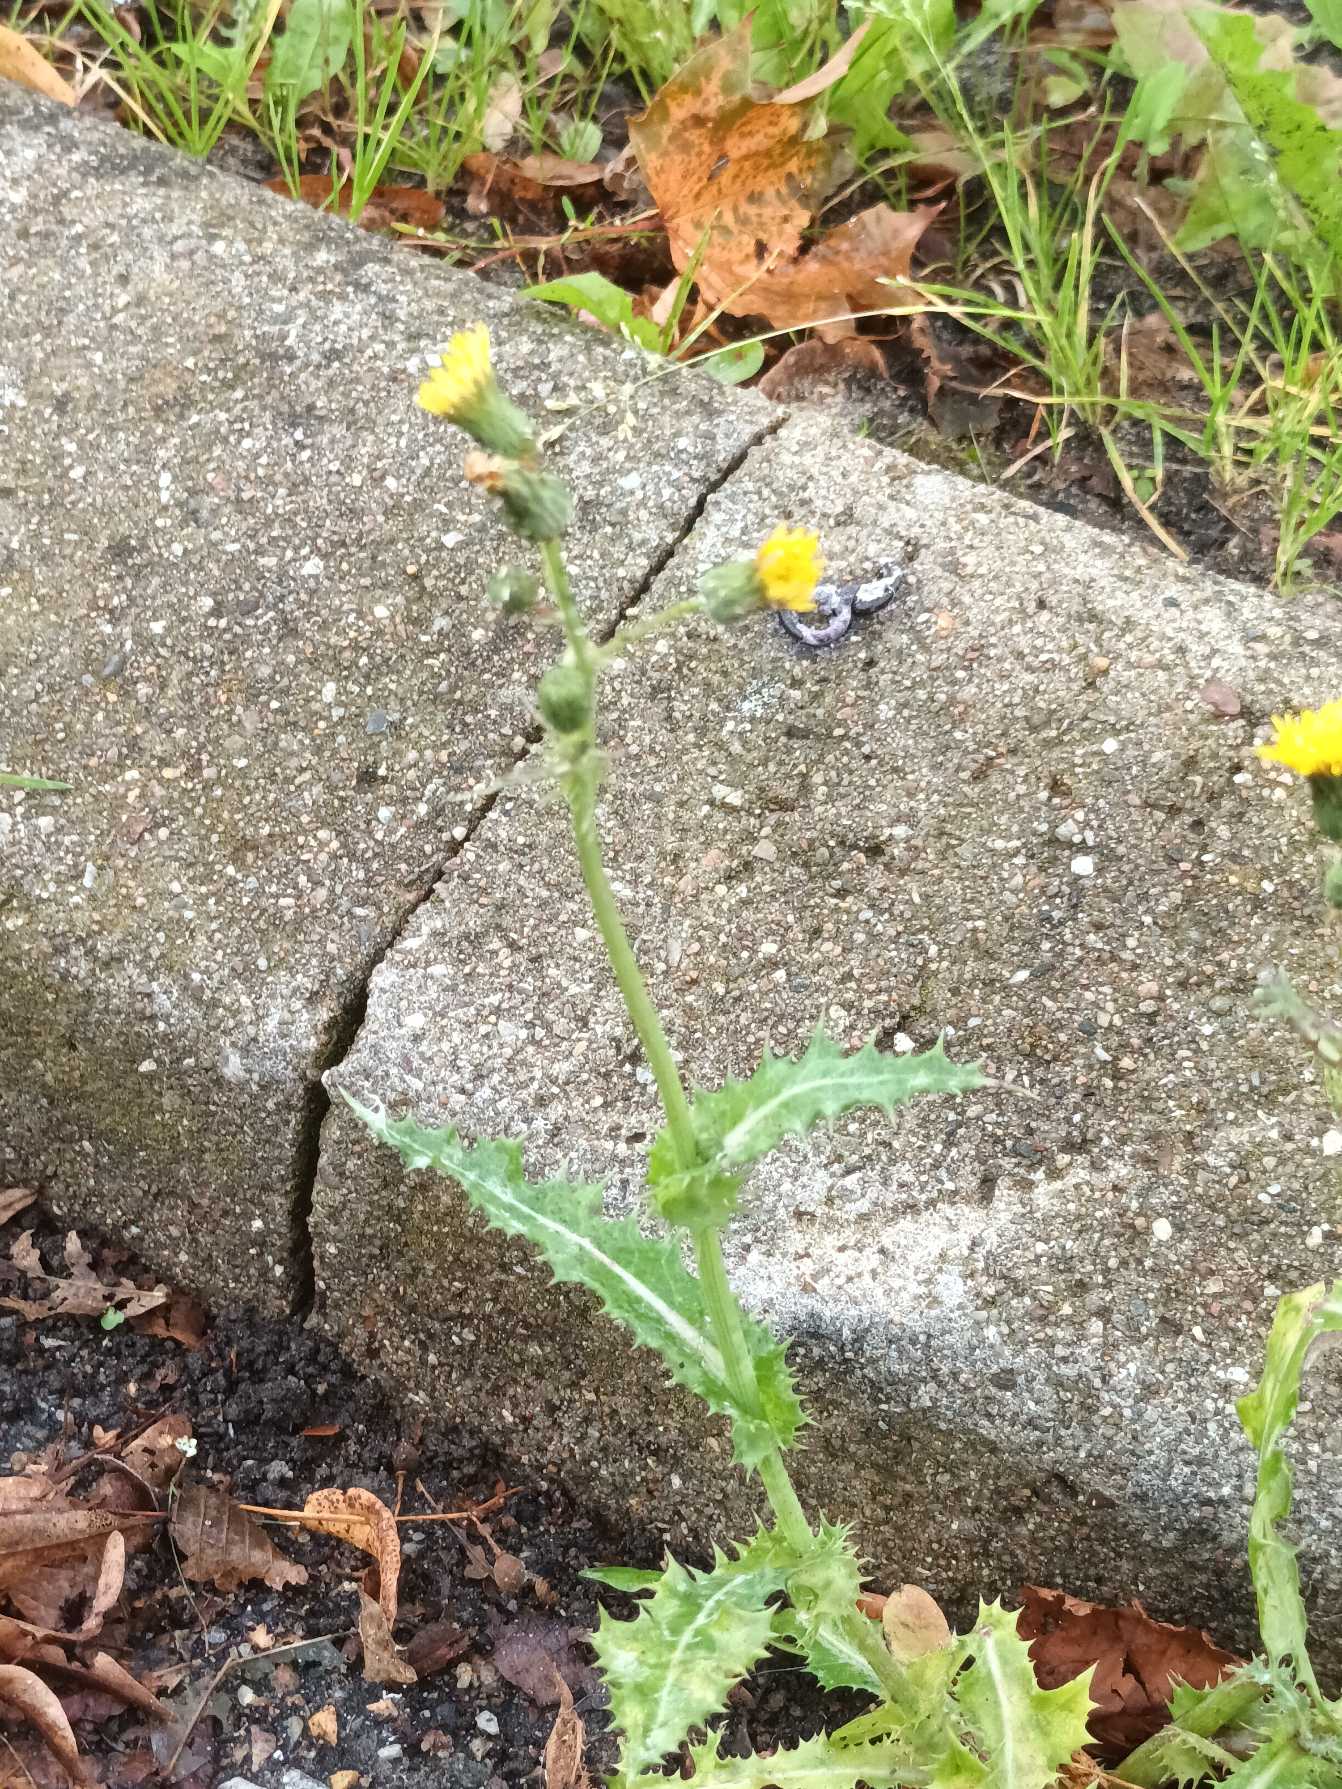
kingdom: Plantae
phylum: Tracheophyta
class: Magnoliopsida
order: Asterales
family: Asteraceae
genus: Sonchus
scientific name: Sonchus asper
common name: Ru svinemælk
